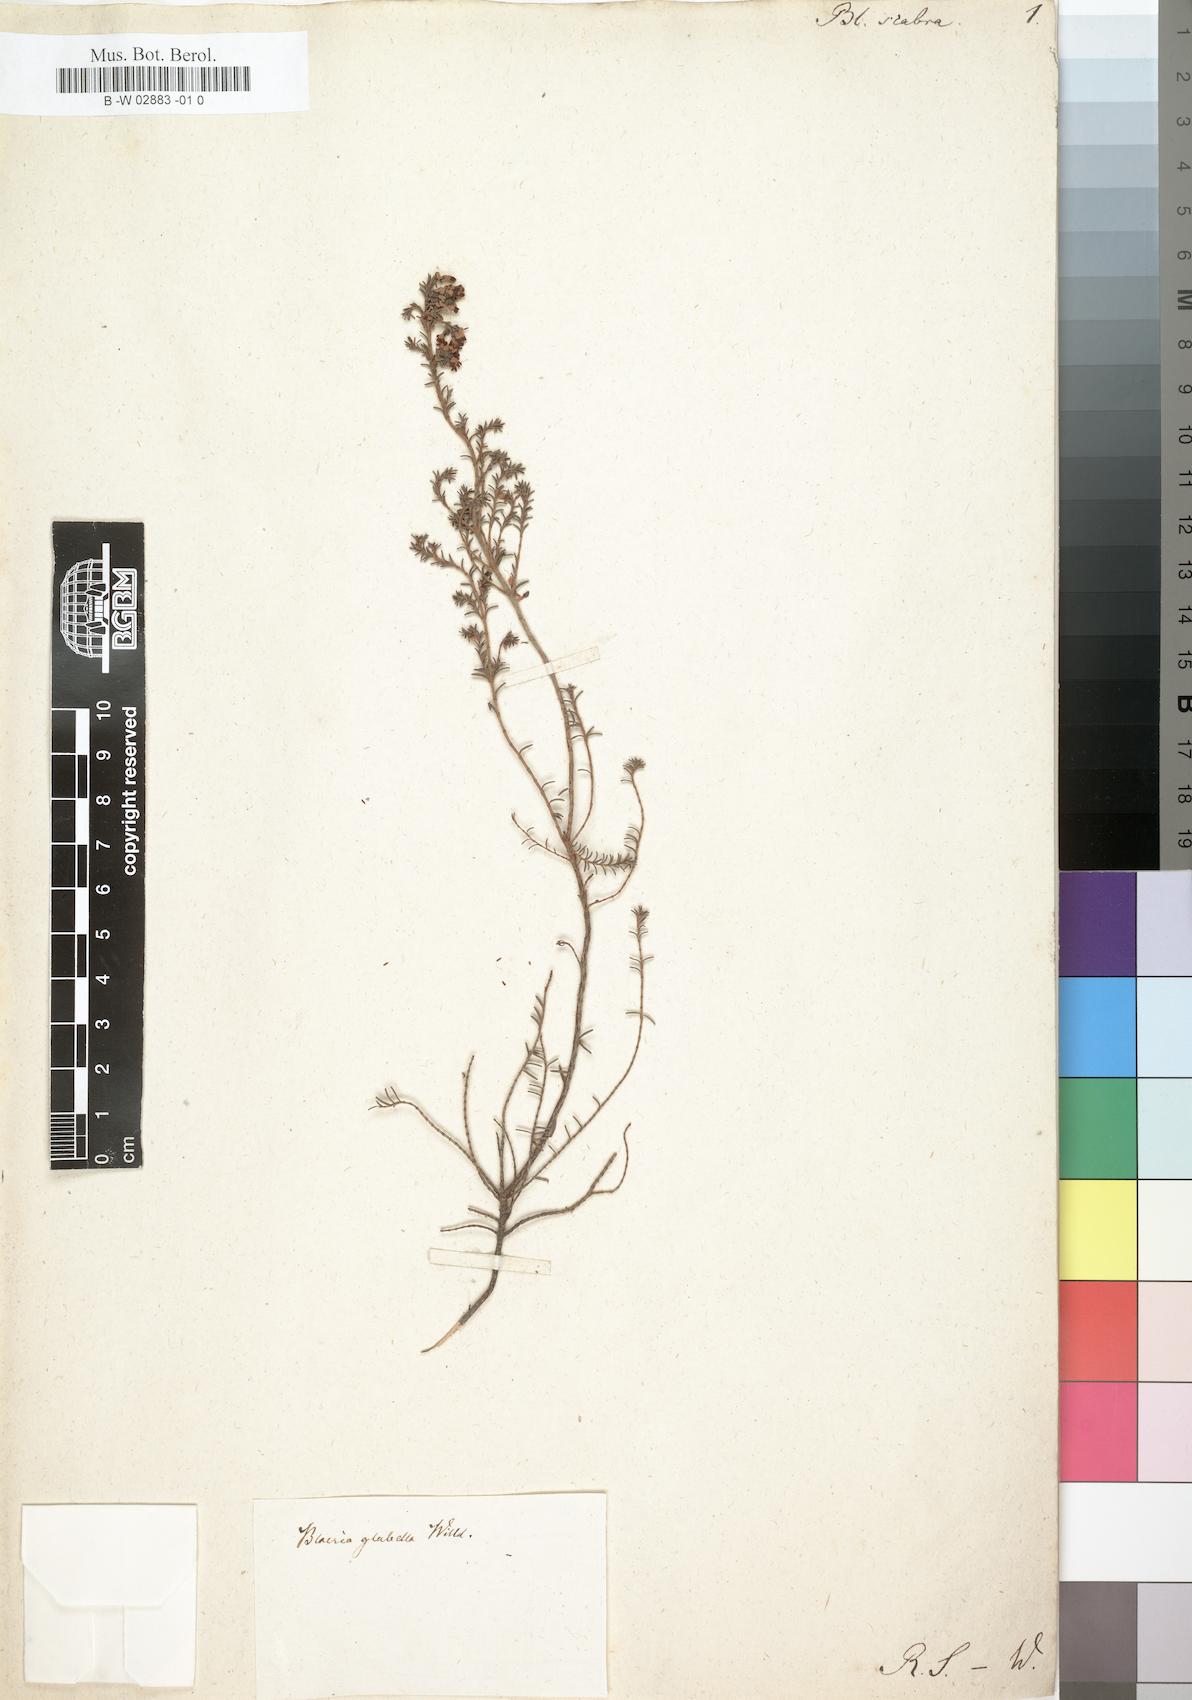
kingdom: Plantae
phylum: Tracheophyta
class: Magnoliopsida
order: Ericales
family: Ericaceae
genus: Erica
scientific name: Erica
